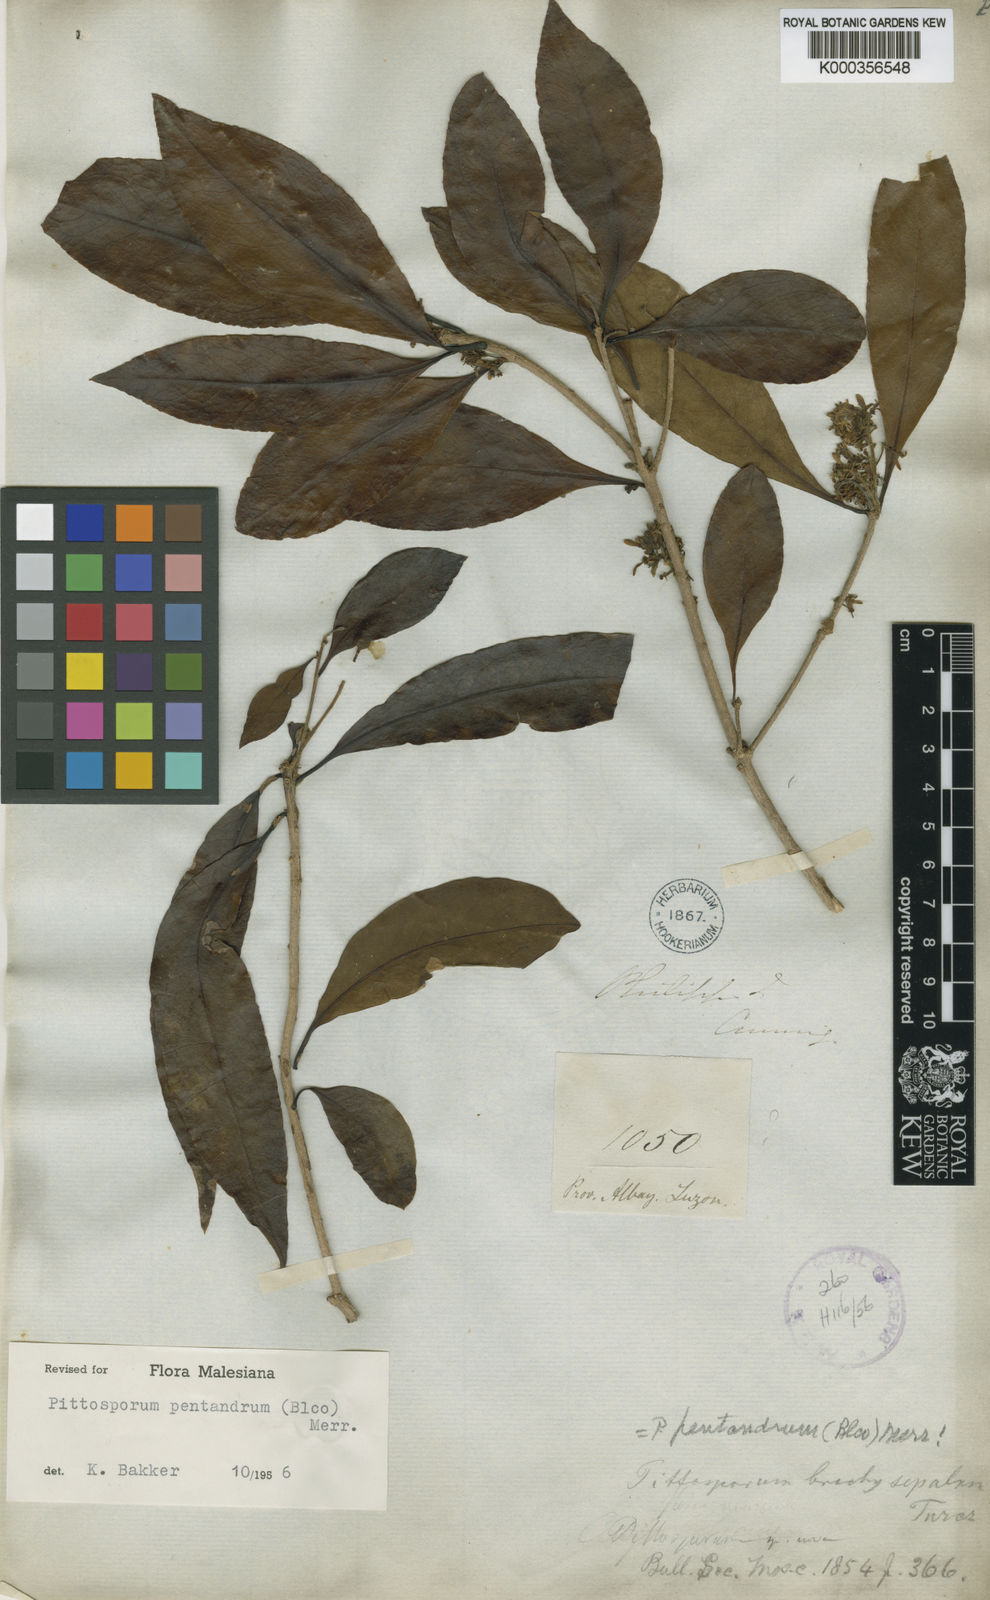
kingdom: Plantae
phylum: Tracheophyta
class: Magnoliopsida
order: Apiales
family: Pittosporaceae
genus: Pittosporum
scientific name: Pittosporum pentandrum
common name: Taiwanese cheesewood
